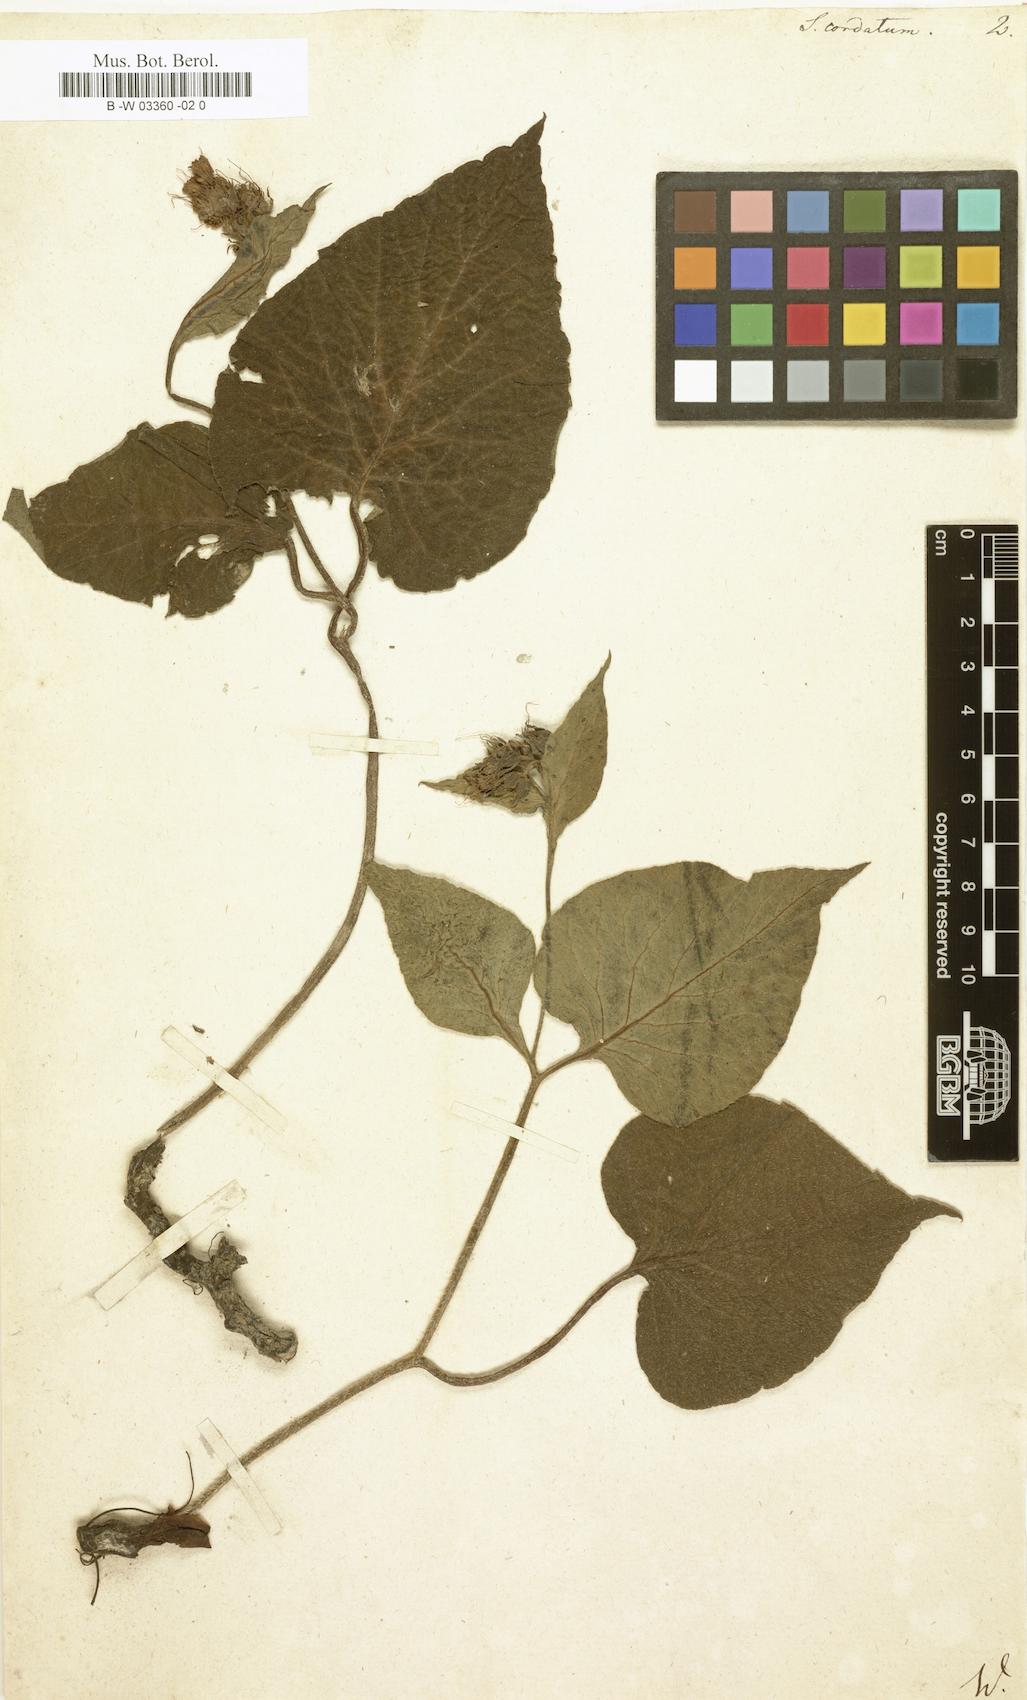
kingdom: Plantae
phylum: Tracheophyta
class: Magnoliopsida
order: Boraginales
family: Boraginaceae
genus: Symphytum
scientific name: Symphytum cordatum
